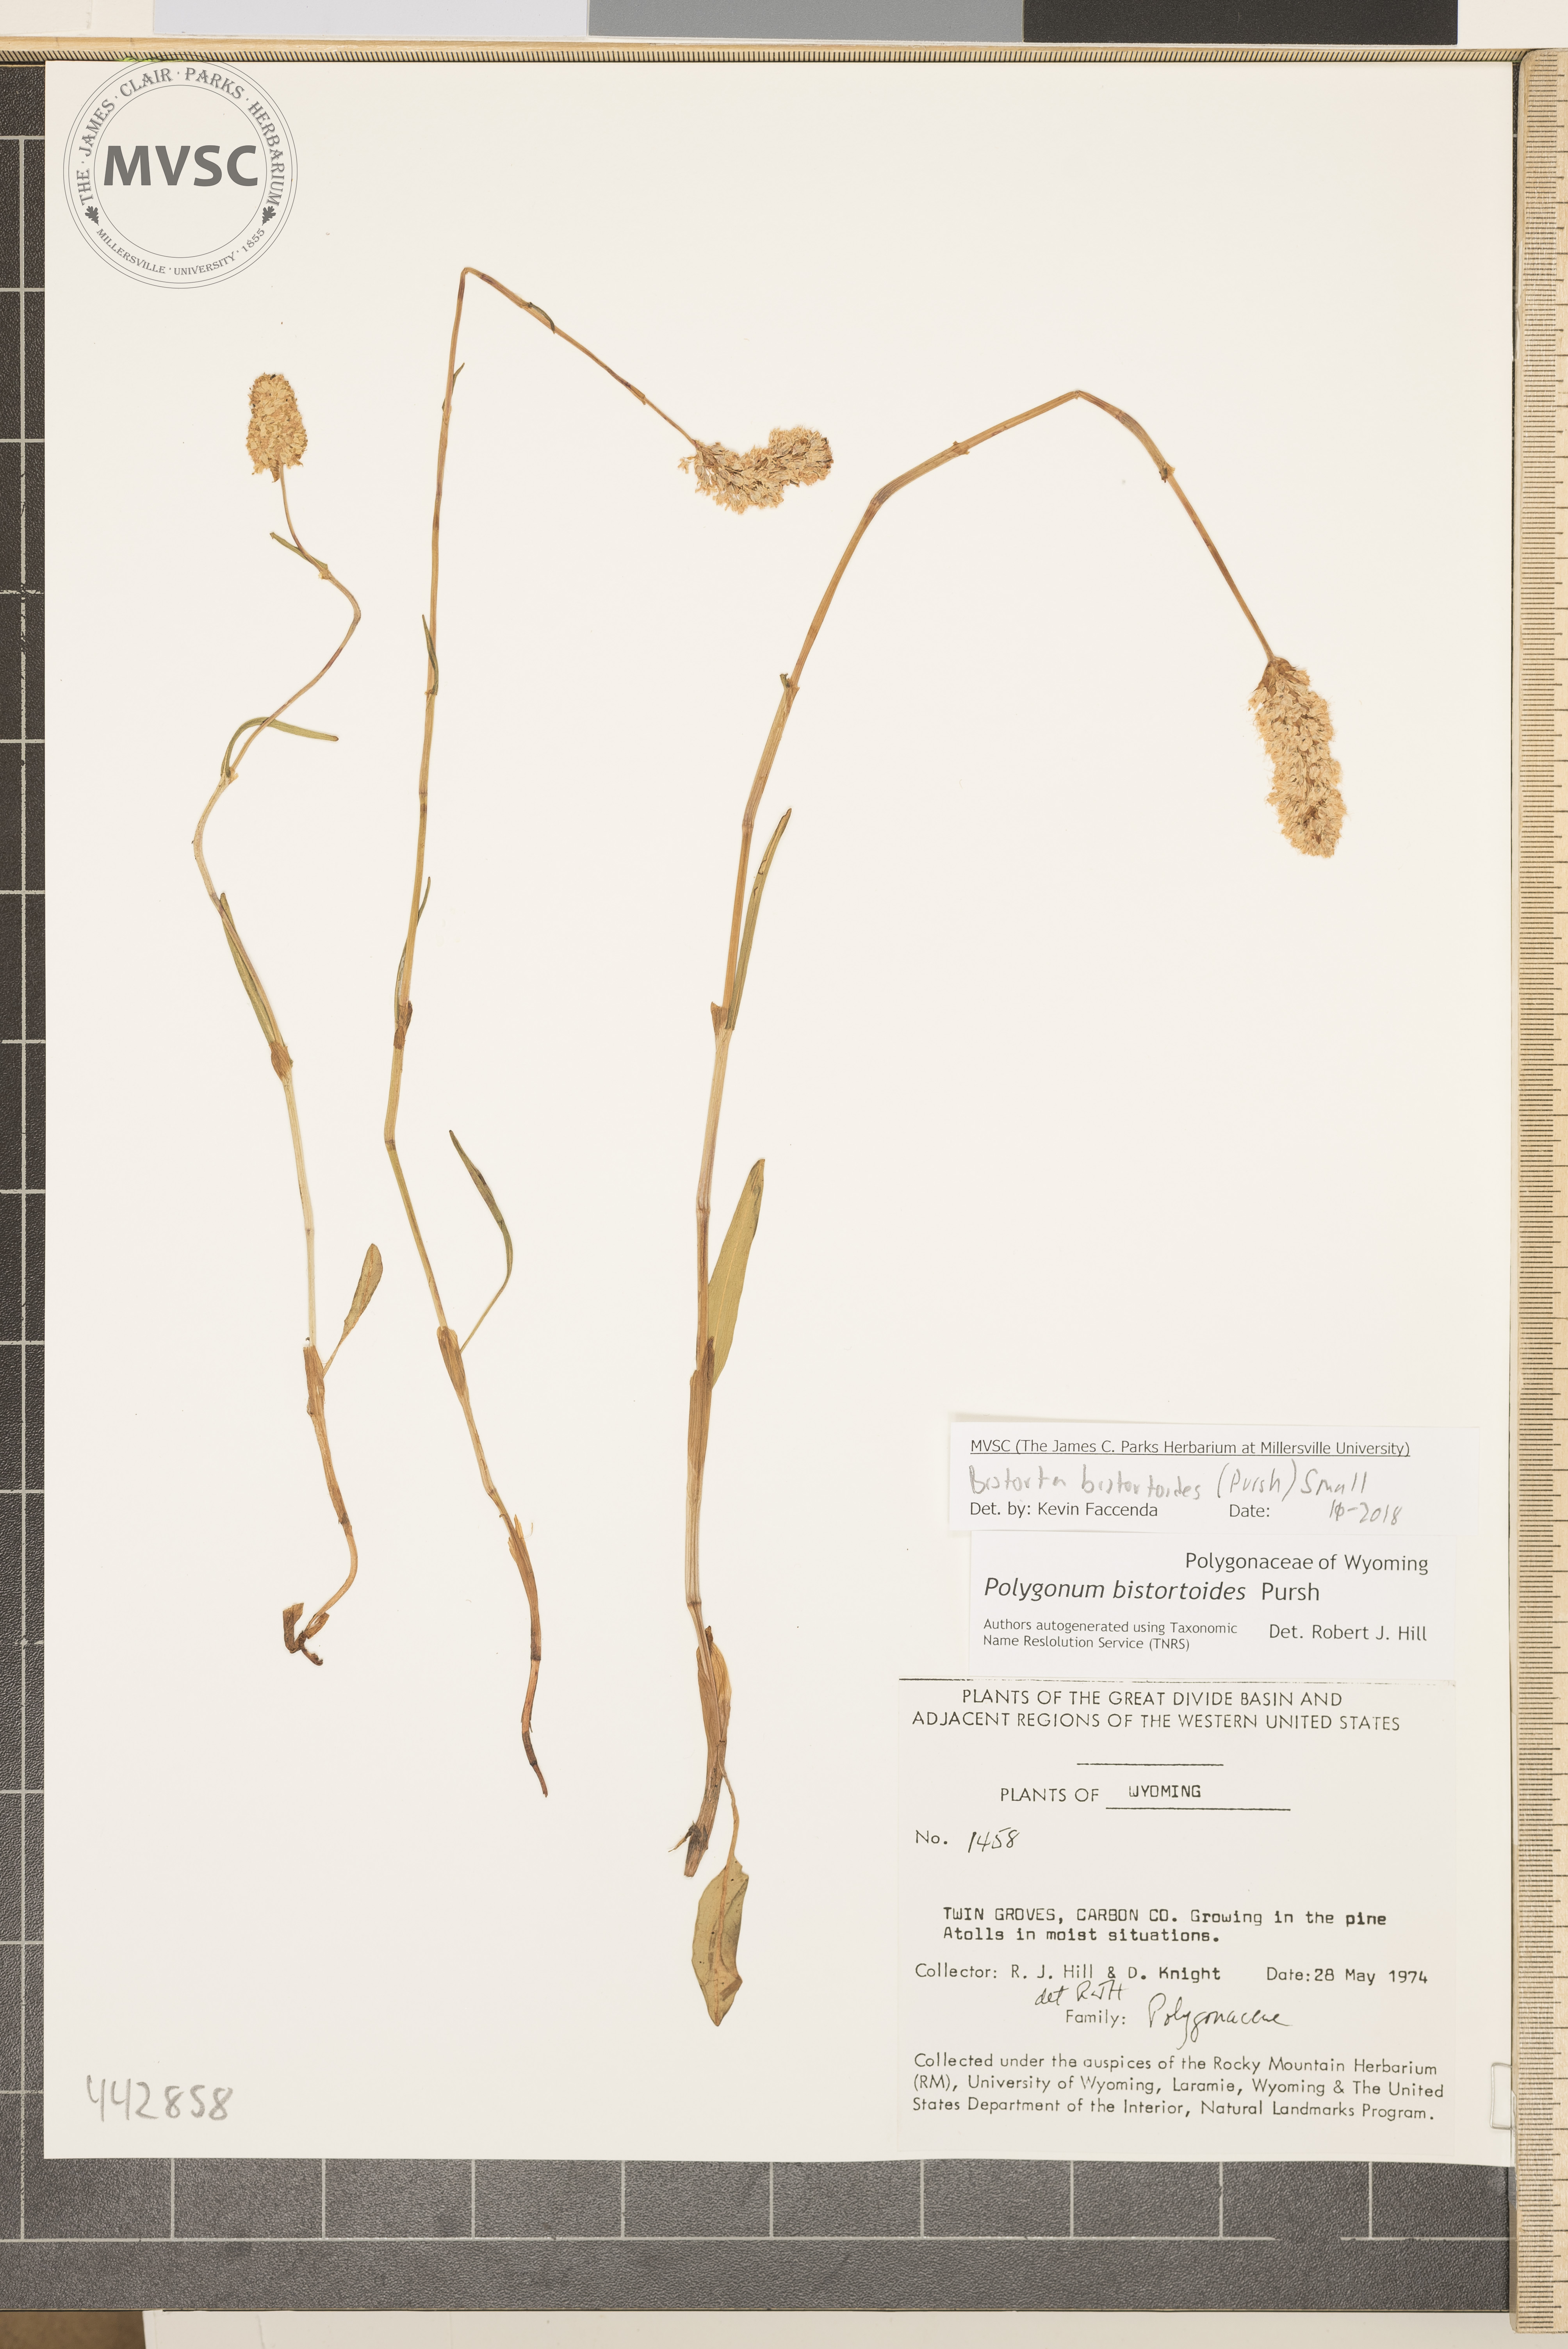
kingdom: Plantae
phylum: Tracheophyta
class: Magnoliopsida
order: Caryophyllales
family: Polygonaceae
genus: Bistorta
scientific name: Bistorta bistortoides
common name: American bistort
